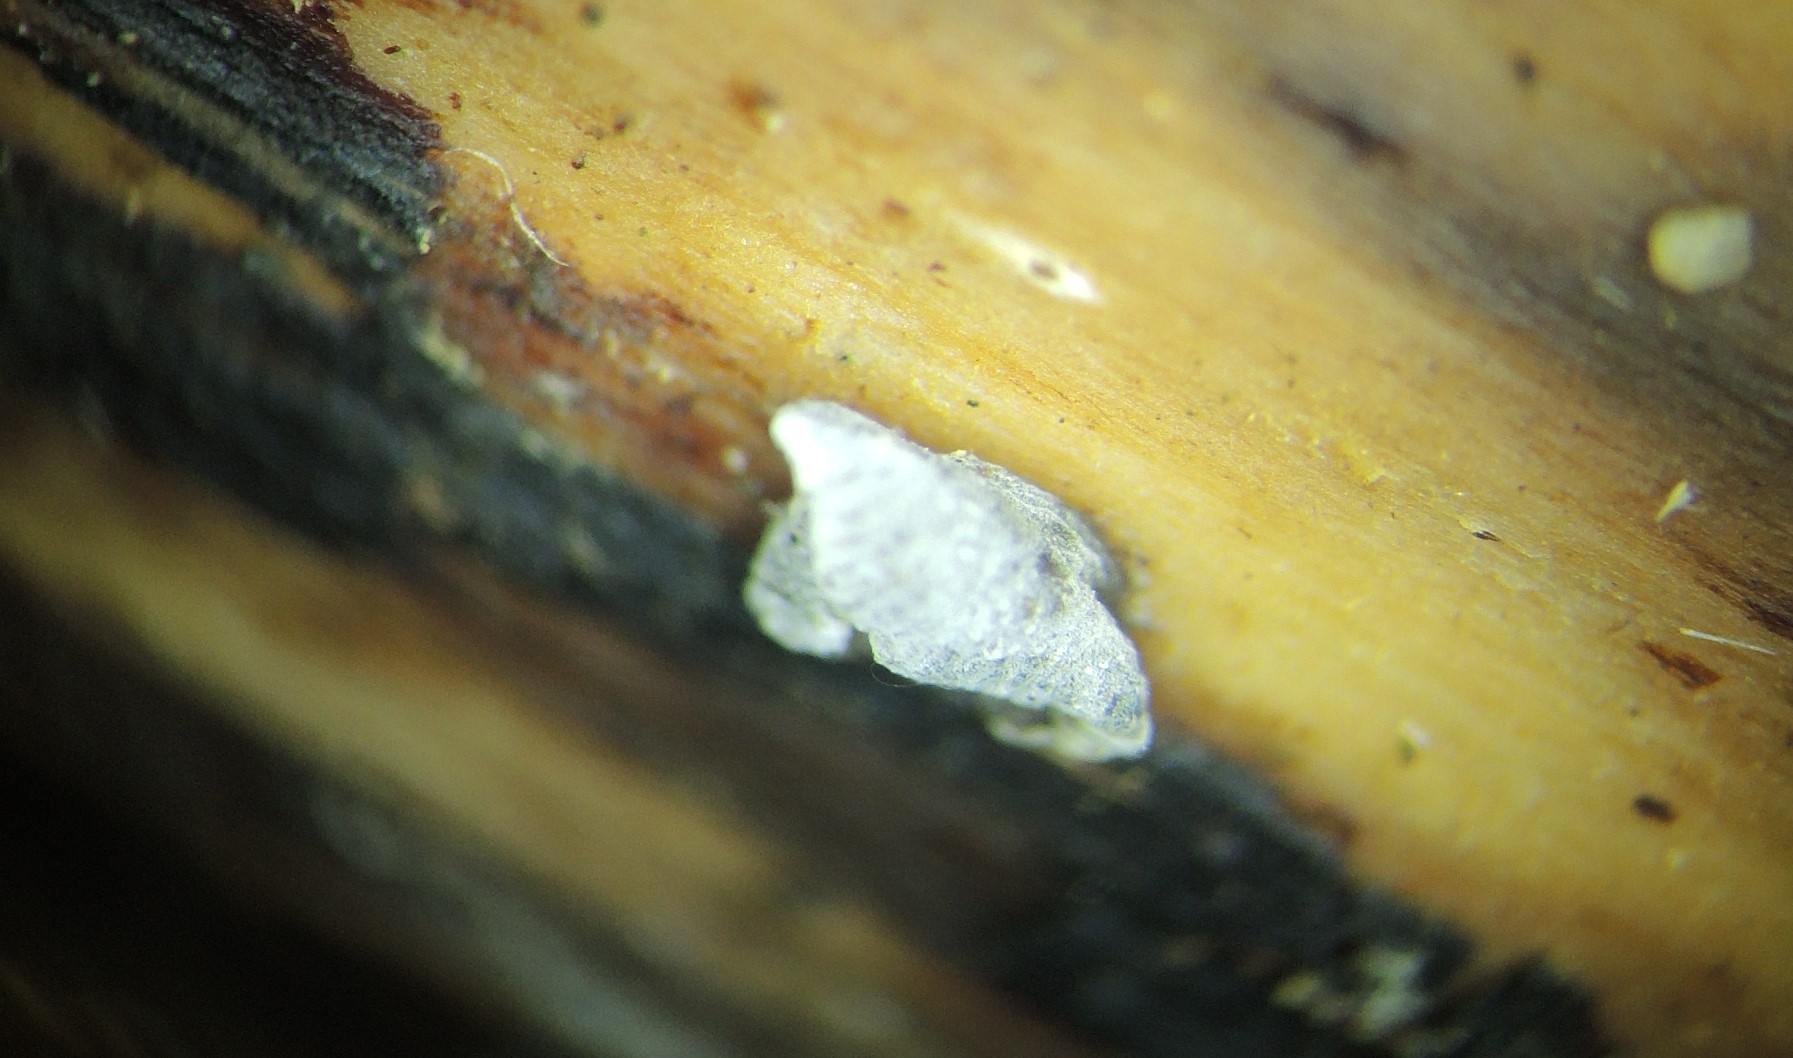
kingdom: Fungi
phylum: Basidiomycota
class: Agaricomycetes
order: Agaricales
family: Pleurotaceae
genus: Resupinatus
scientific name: Resupinatus applicatus
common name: lysfiltet barkhat
